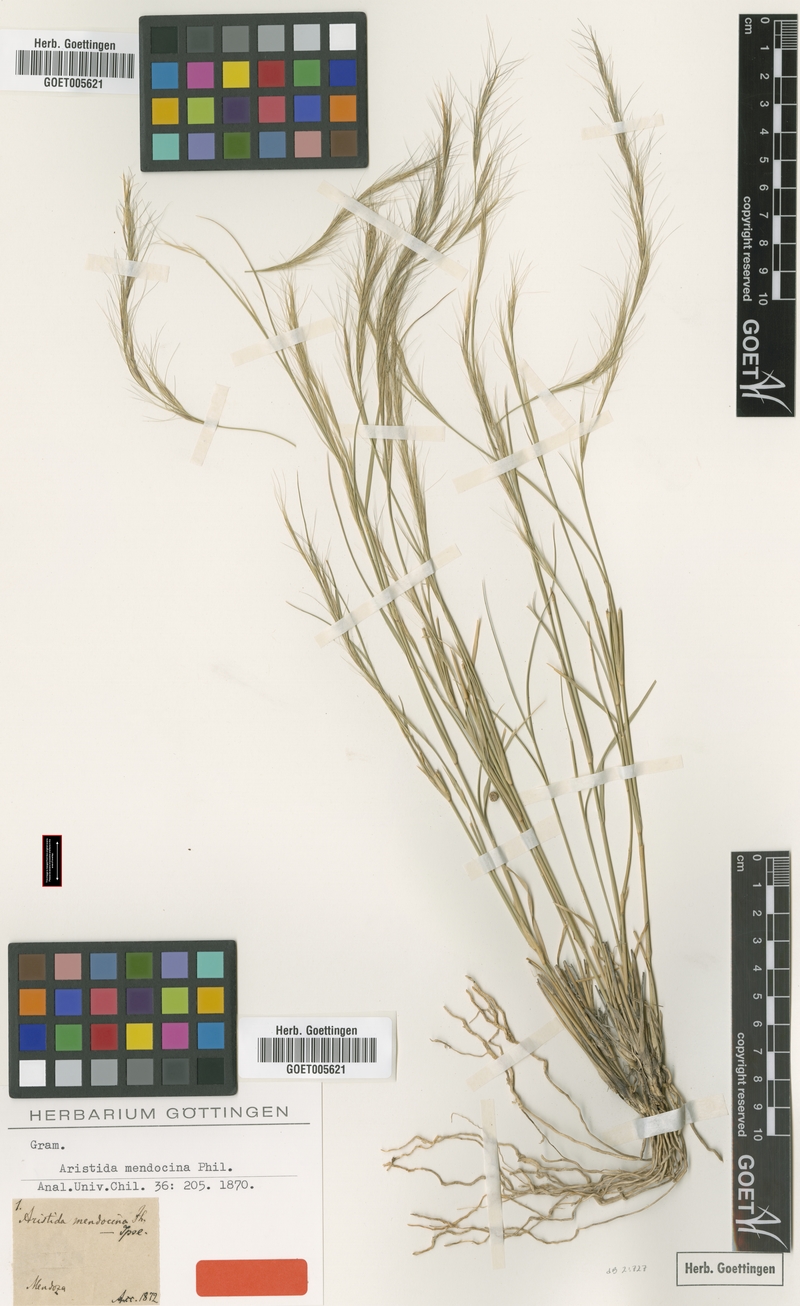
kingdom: Plantae
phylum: Tracheophyta
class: Liliopsida
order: Poales
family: Poaceae
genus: Aristida
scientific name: Aristida mendocina
